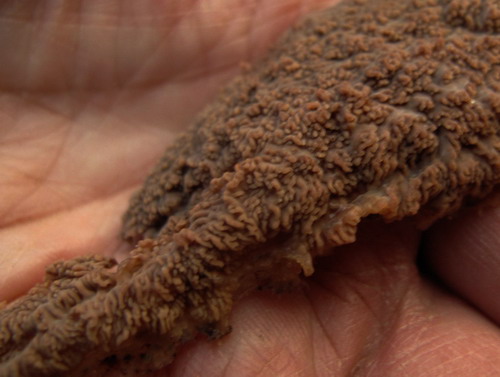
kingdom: Fungi
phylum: Basidiomycota
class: Agaricomycetes
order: Polyporales
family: Meruliaceae
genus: Phlebia
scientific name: Phlebia radiata
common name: stråle-åresvamp
